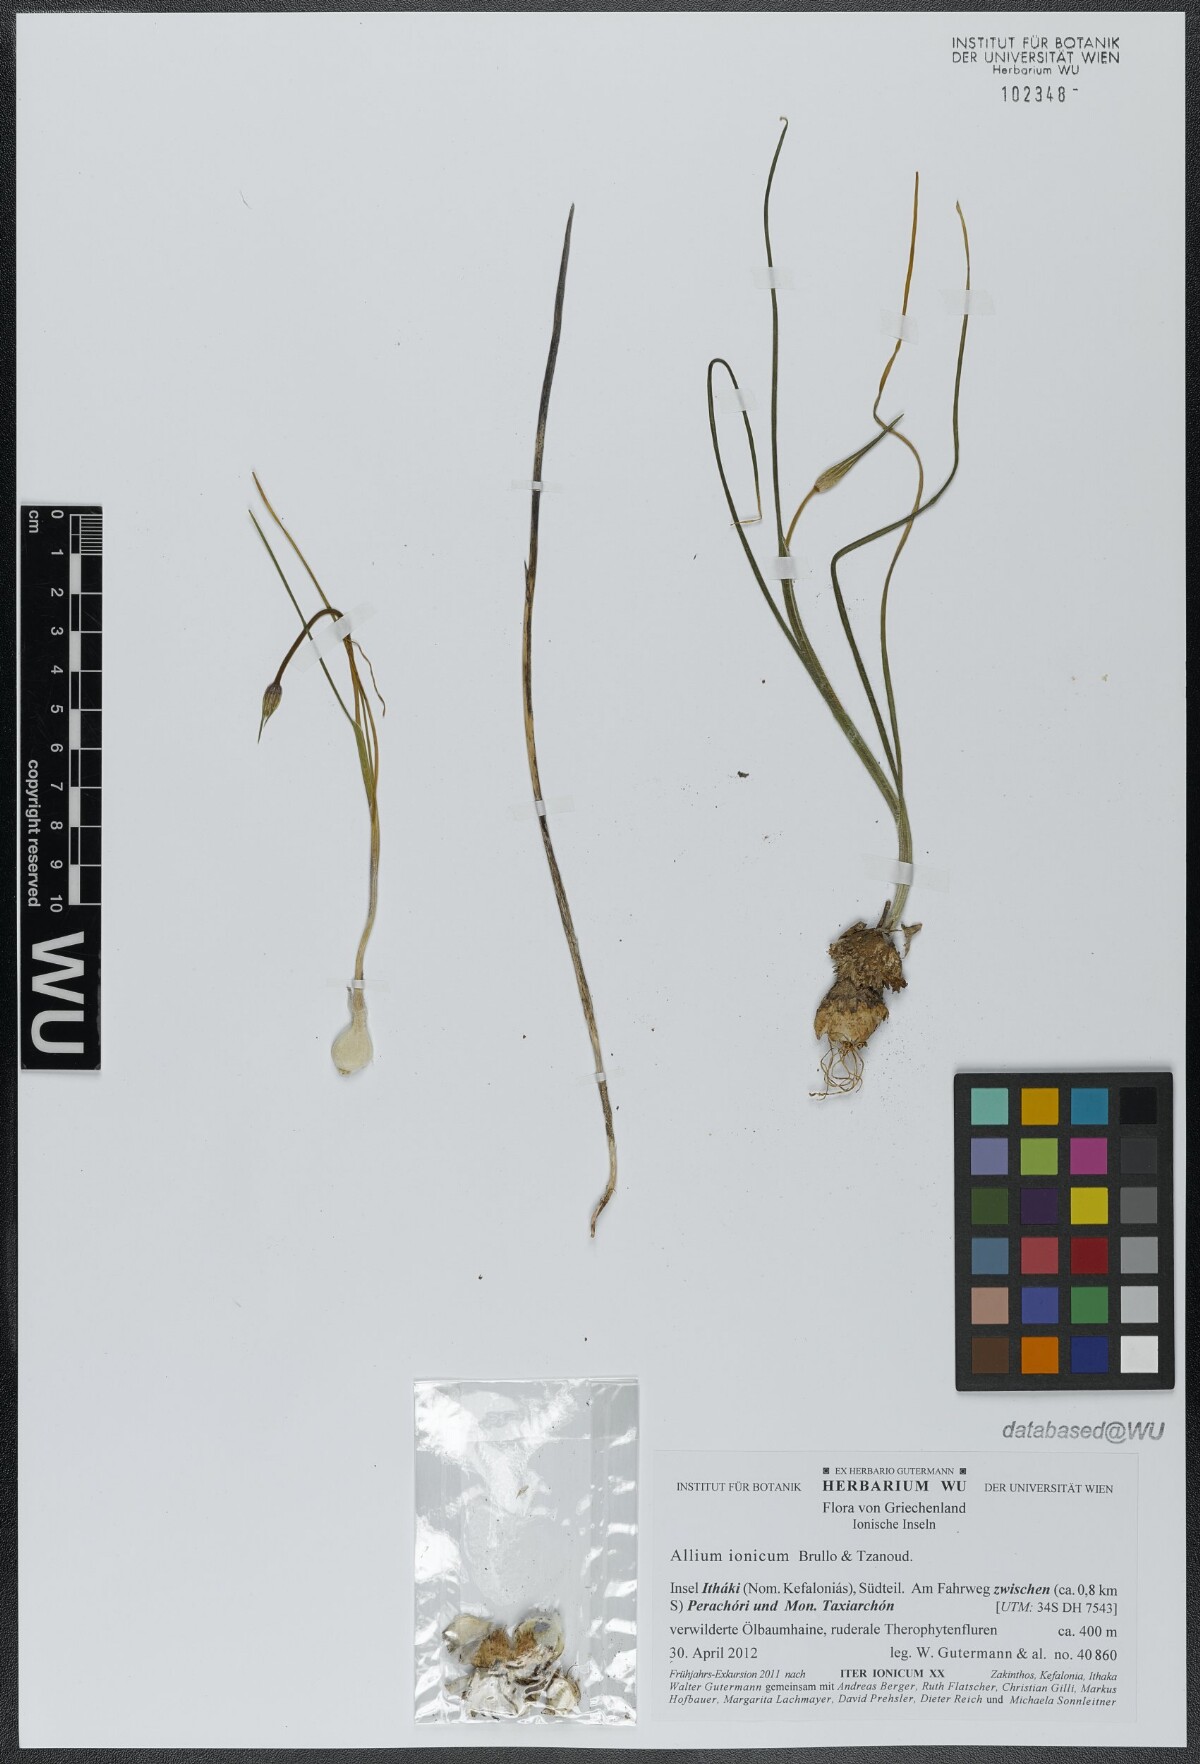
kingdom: Plantae
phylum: Tracheophyta
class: Liliopsida
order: Asparagales
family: Amaryllidaceae
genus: Allium
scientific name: Allium ionicum
